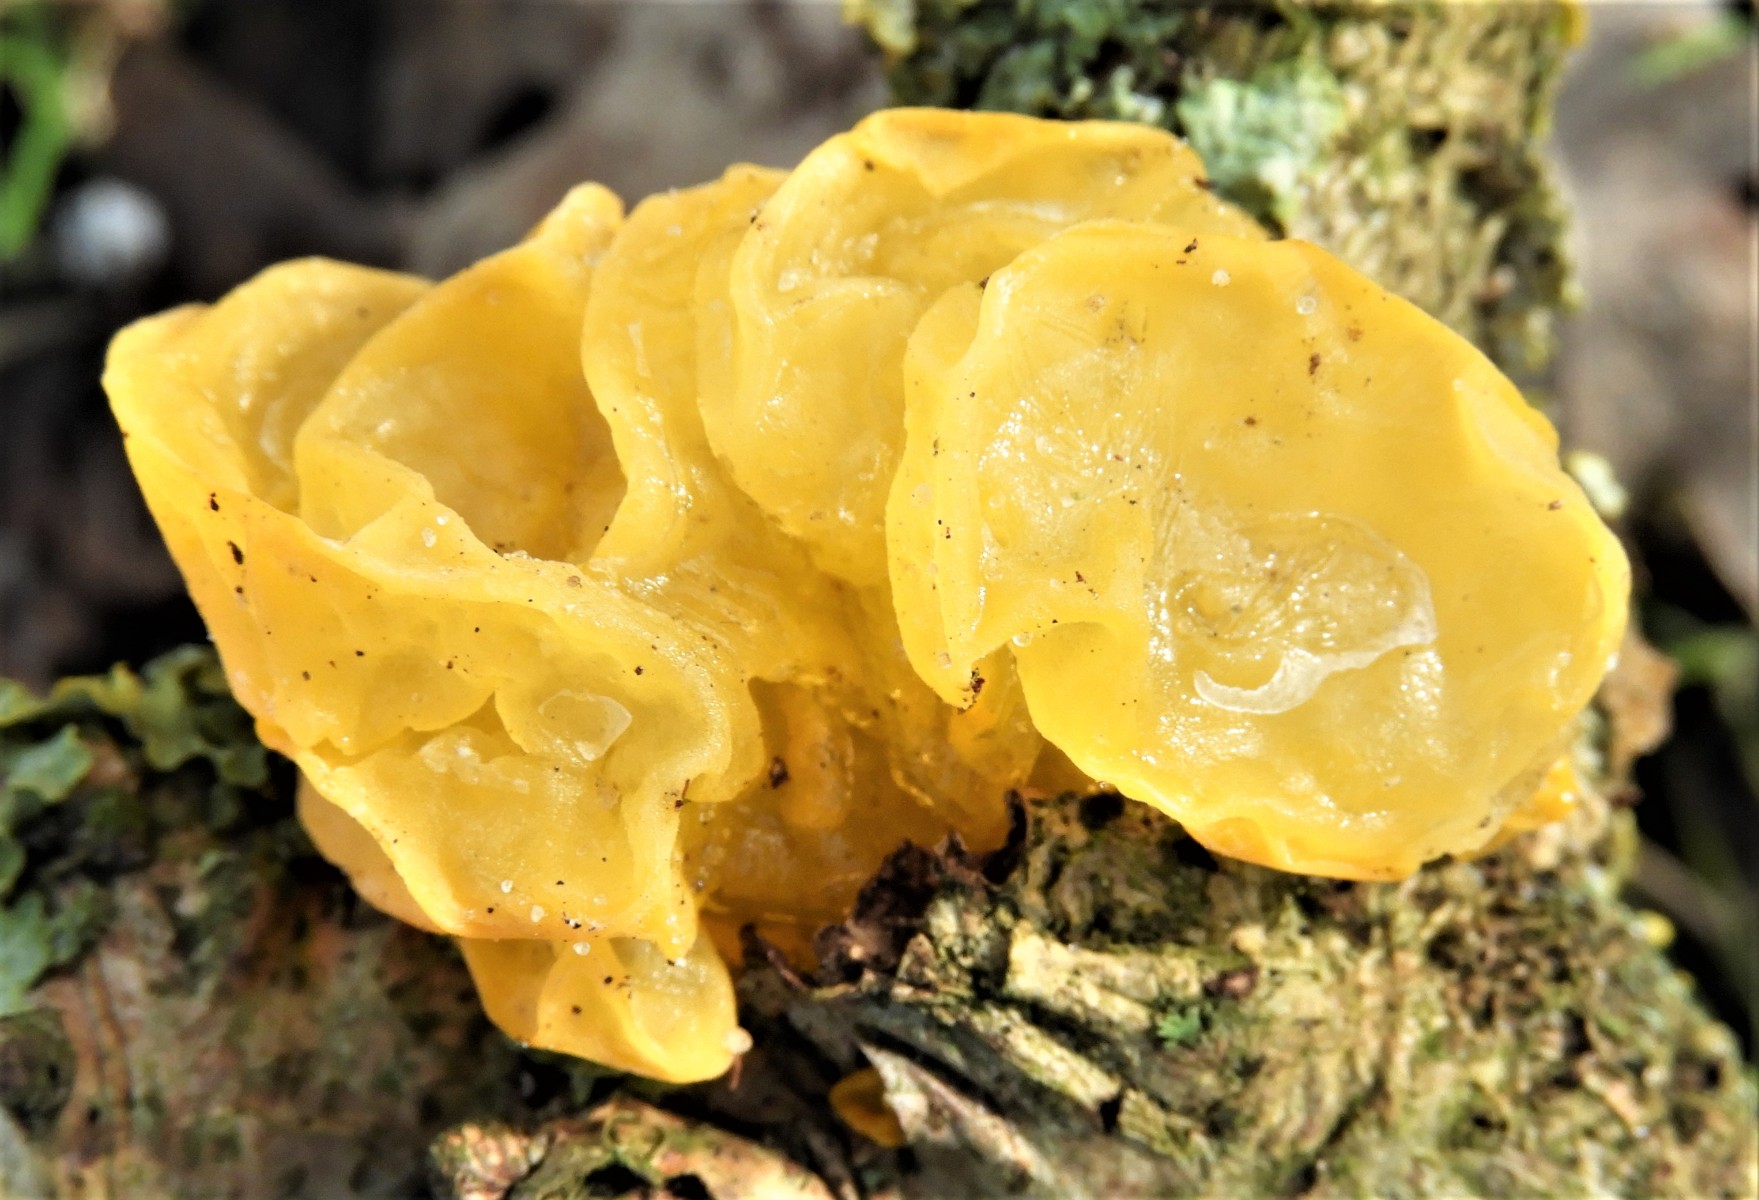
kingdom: Fungi
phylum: Basidiomycota
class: Tremellomycetes
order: Tremellales
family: Tremellaceae
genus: Tremella
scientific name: Tremella mesenterica
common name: gul bævresvamp
